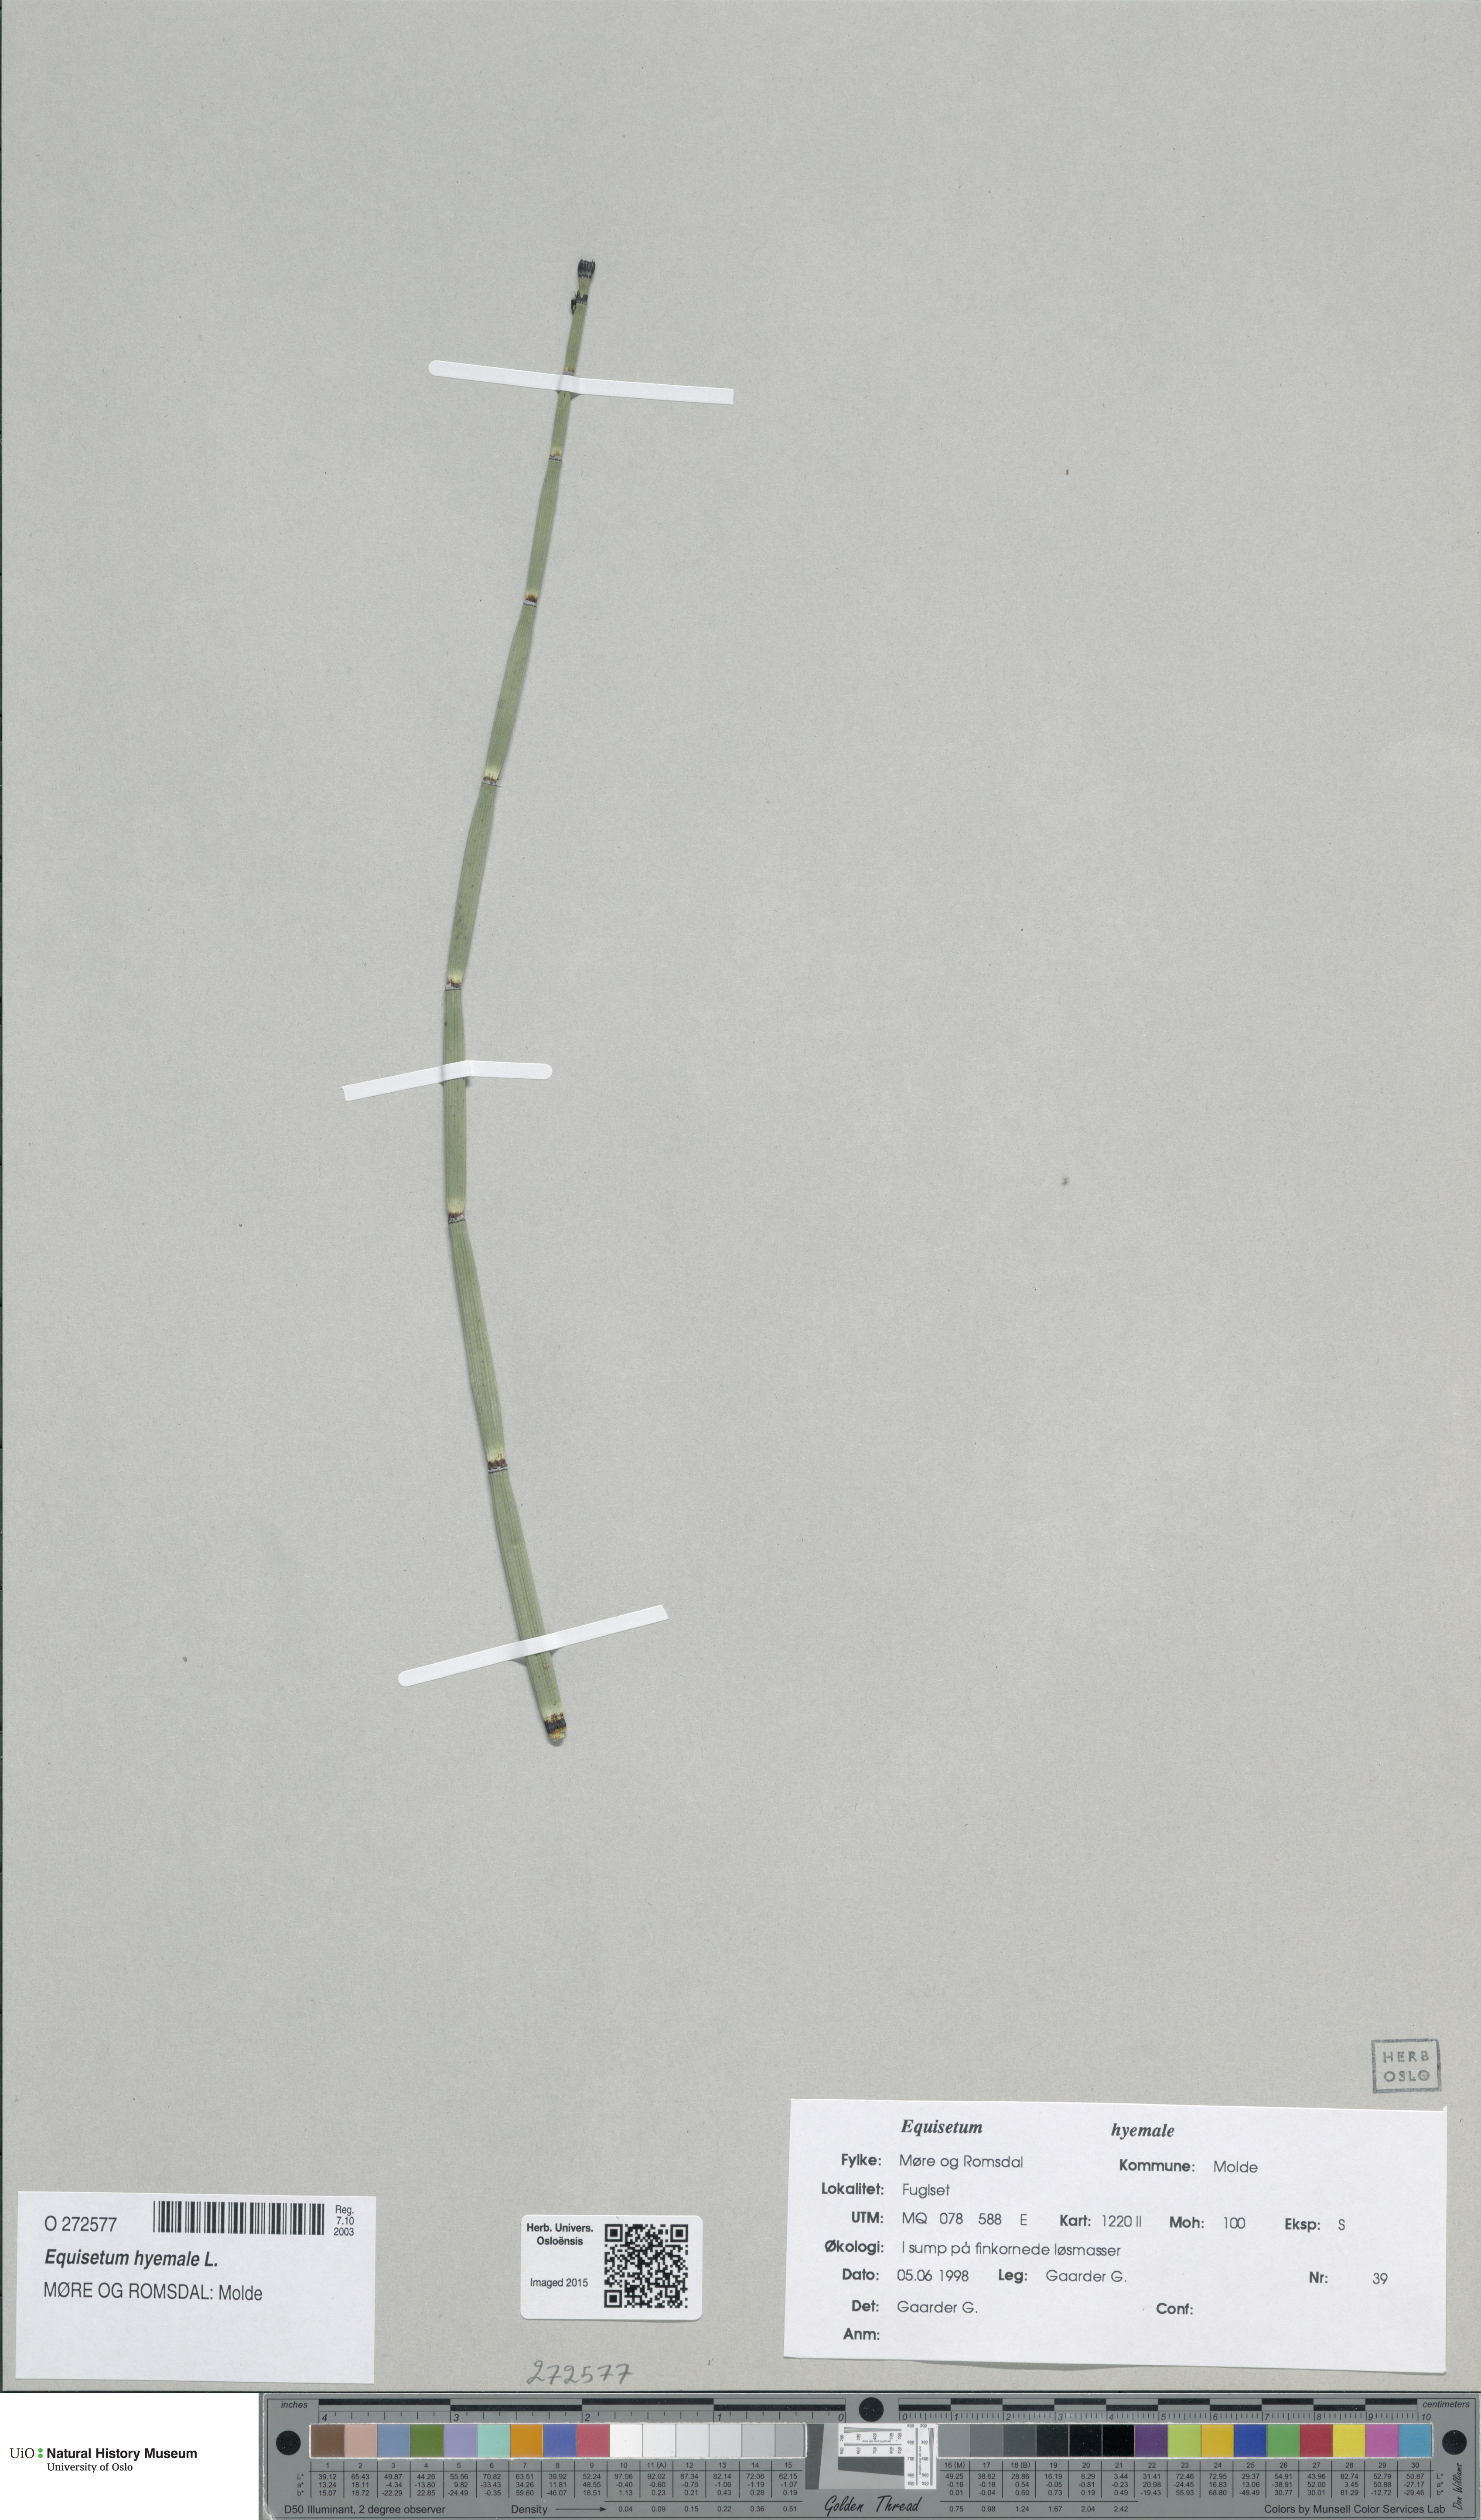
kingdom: Plantae
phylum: Tracheophyta
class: Polypodiopsida
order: Equisetales
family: Equisetaceae
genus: Equisetum
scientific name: Equisetum hyemale
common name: Rough horsetail
